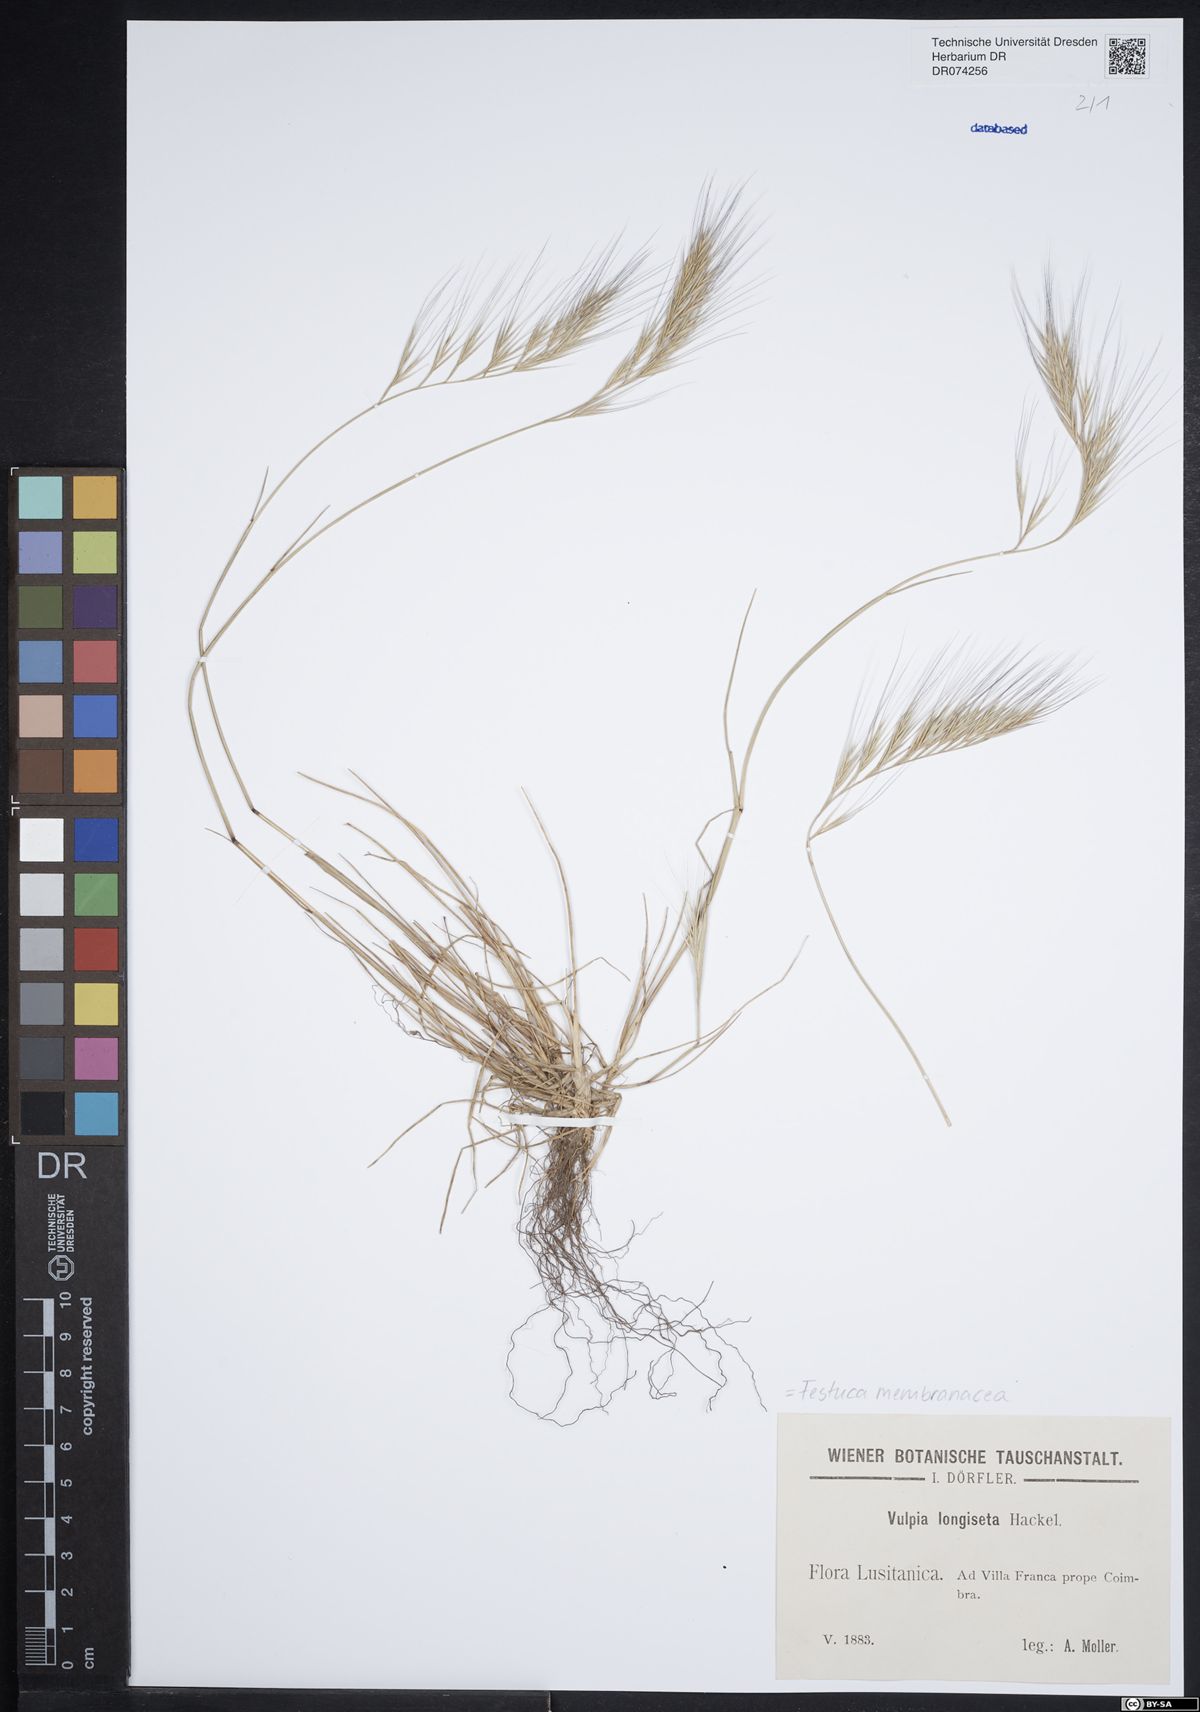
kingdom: Plantae
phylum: Tracheophyta
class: Liliopsida
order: Poales
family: Poaceae
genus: Festuca
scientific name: Festuca membranacea
